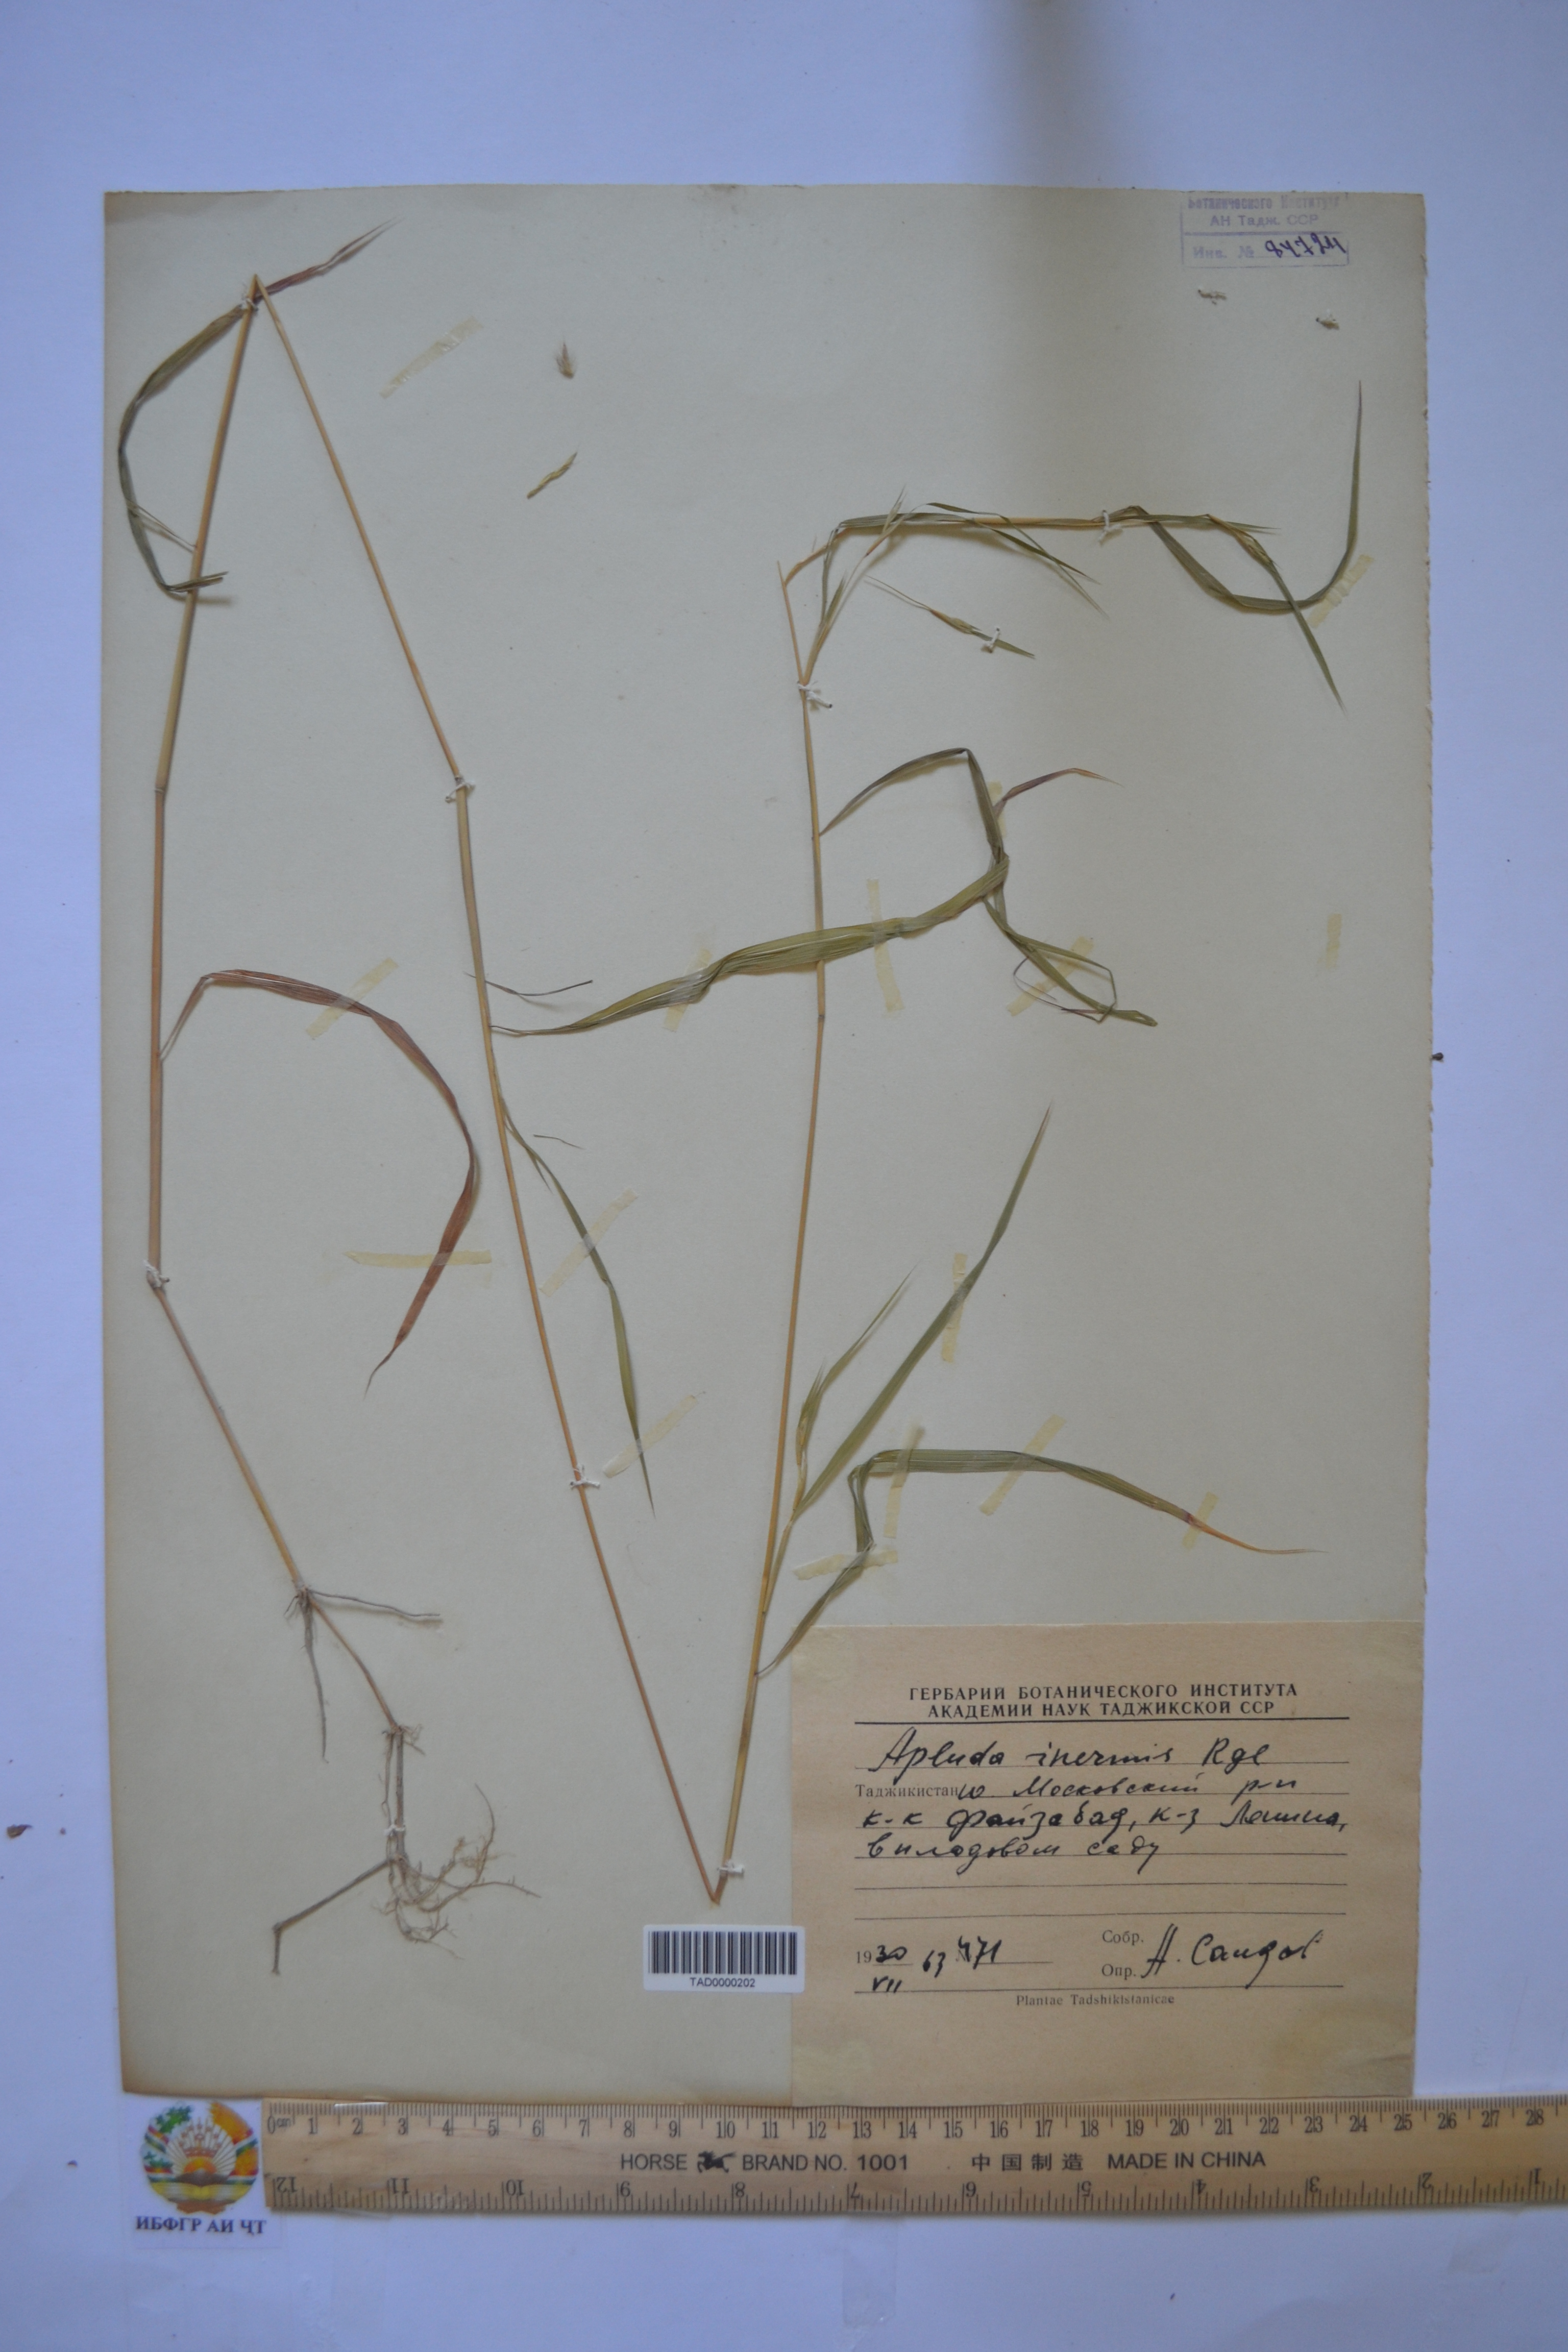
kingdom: Plantae
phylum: Tracheophyta
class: Liliopsida
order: Poales
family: Poaceae
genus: Apluda
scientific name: Apluda mutica
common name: Mauritian grass
